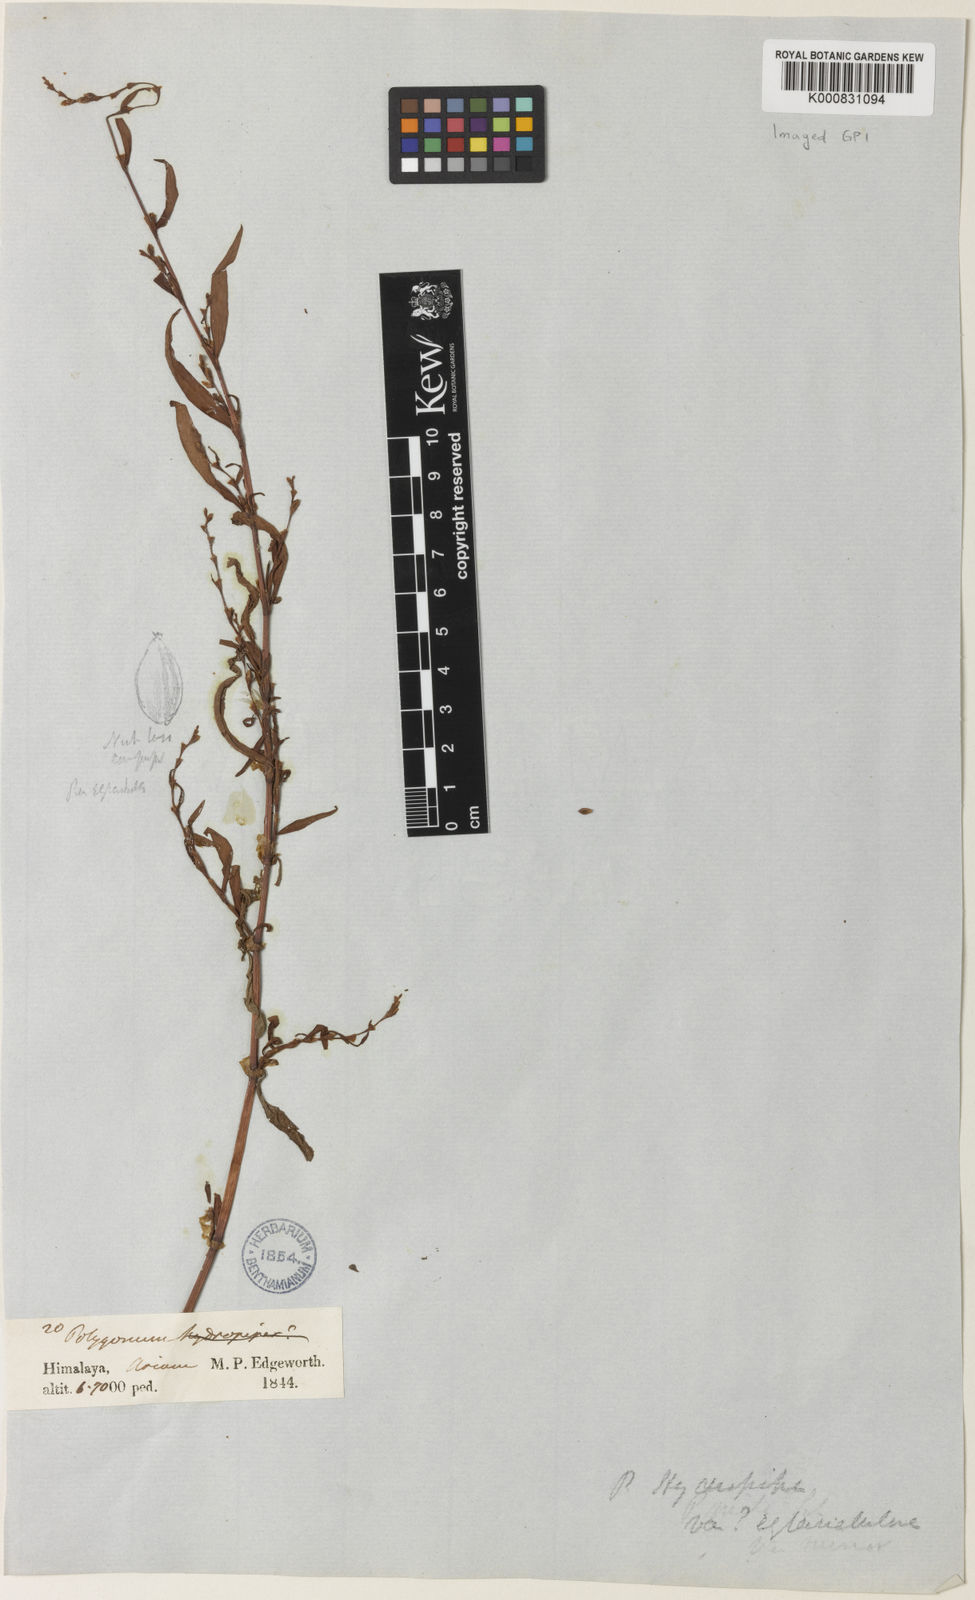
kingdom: Plantae
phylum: Tracheophyta
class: Magnoliopsida
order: Caryophyllales
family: Polygonaceae
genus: Persicaria
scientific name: Persicaria hydropiper
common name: Water-pepper
